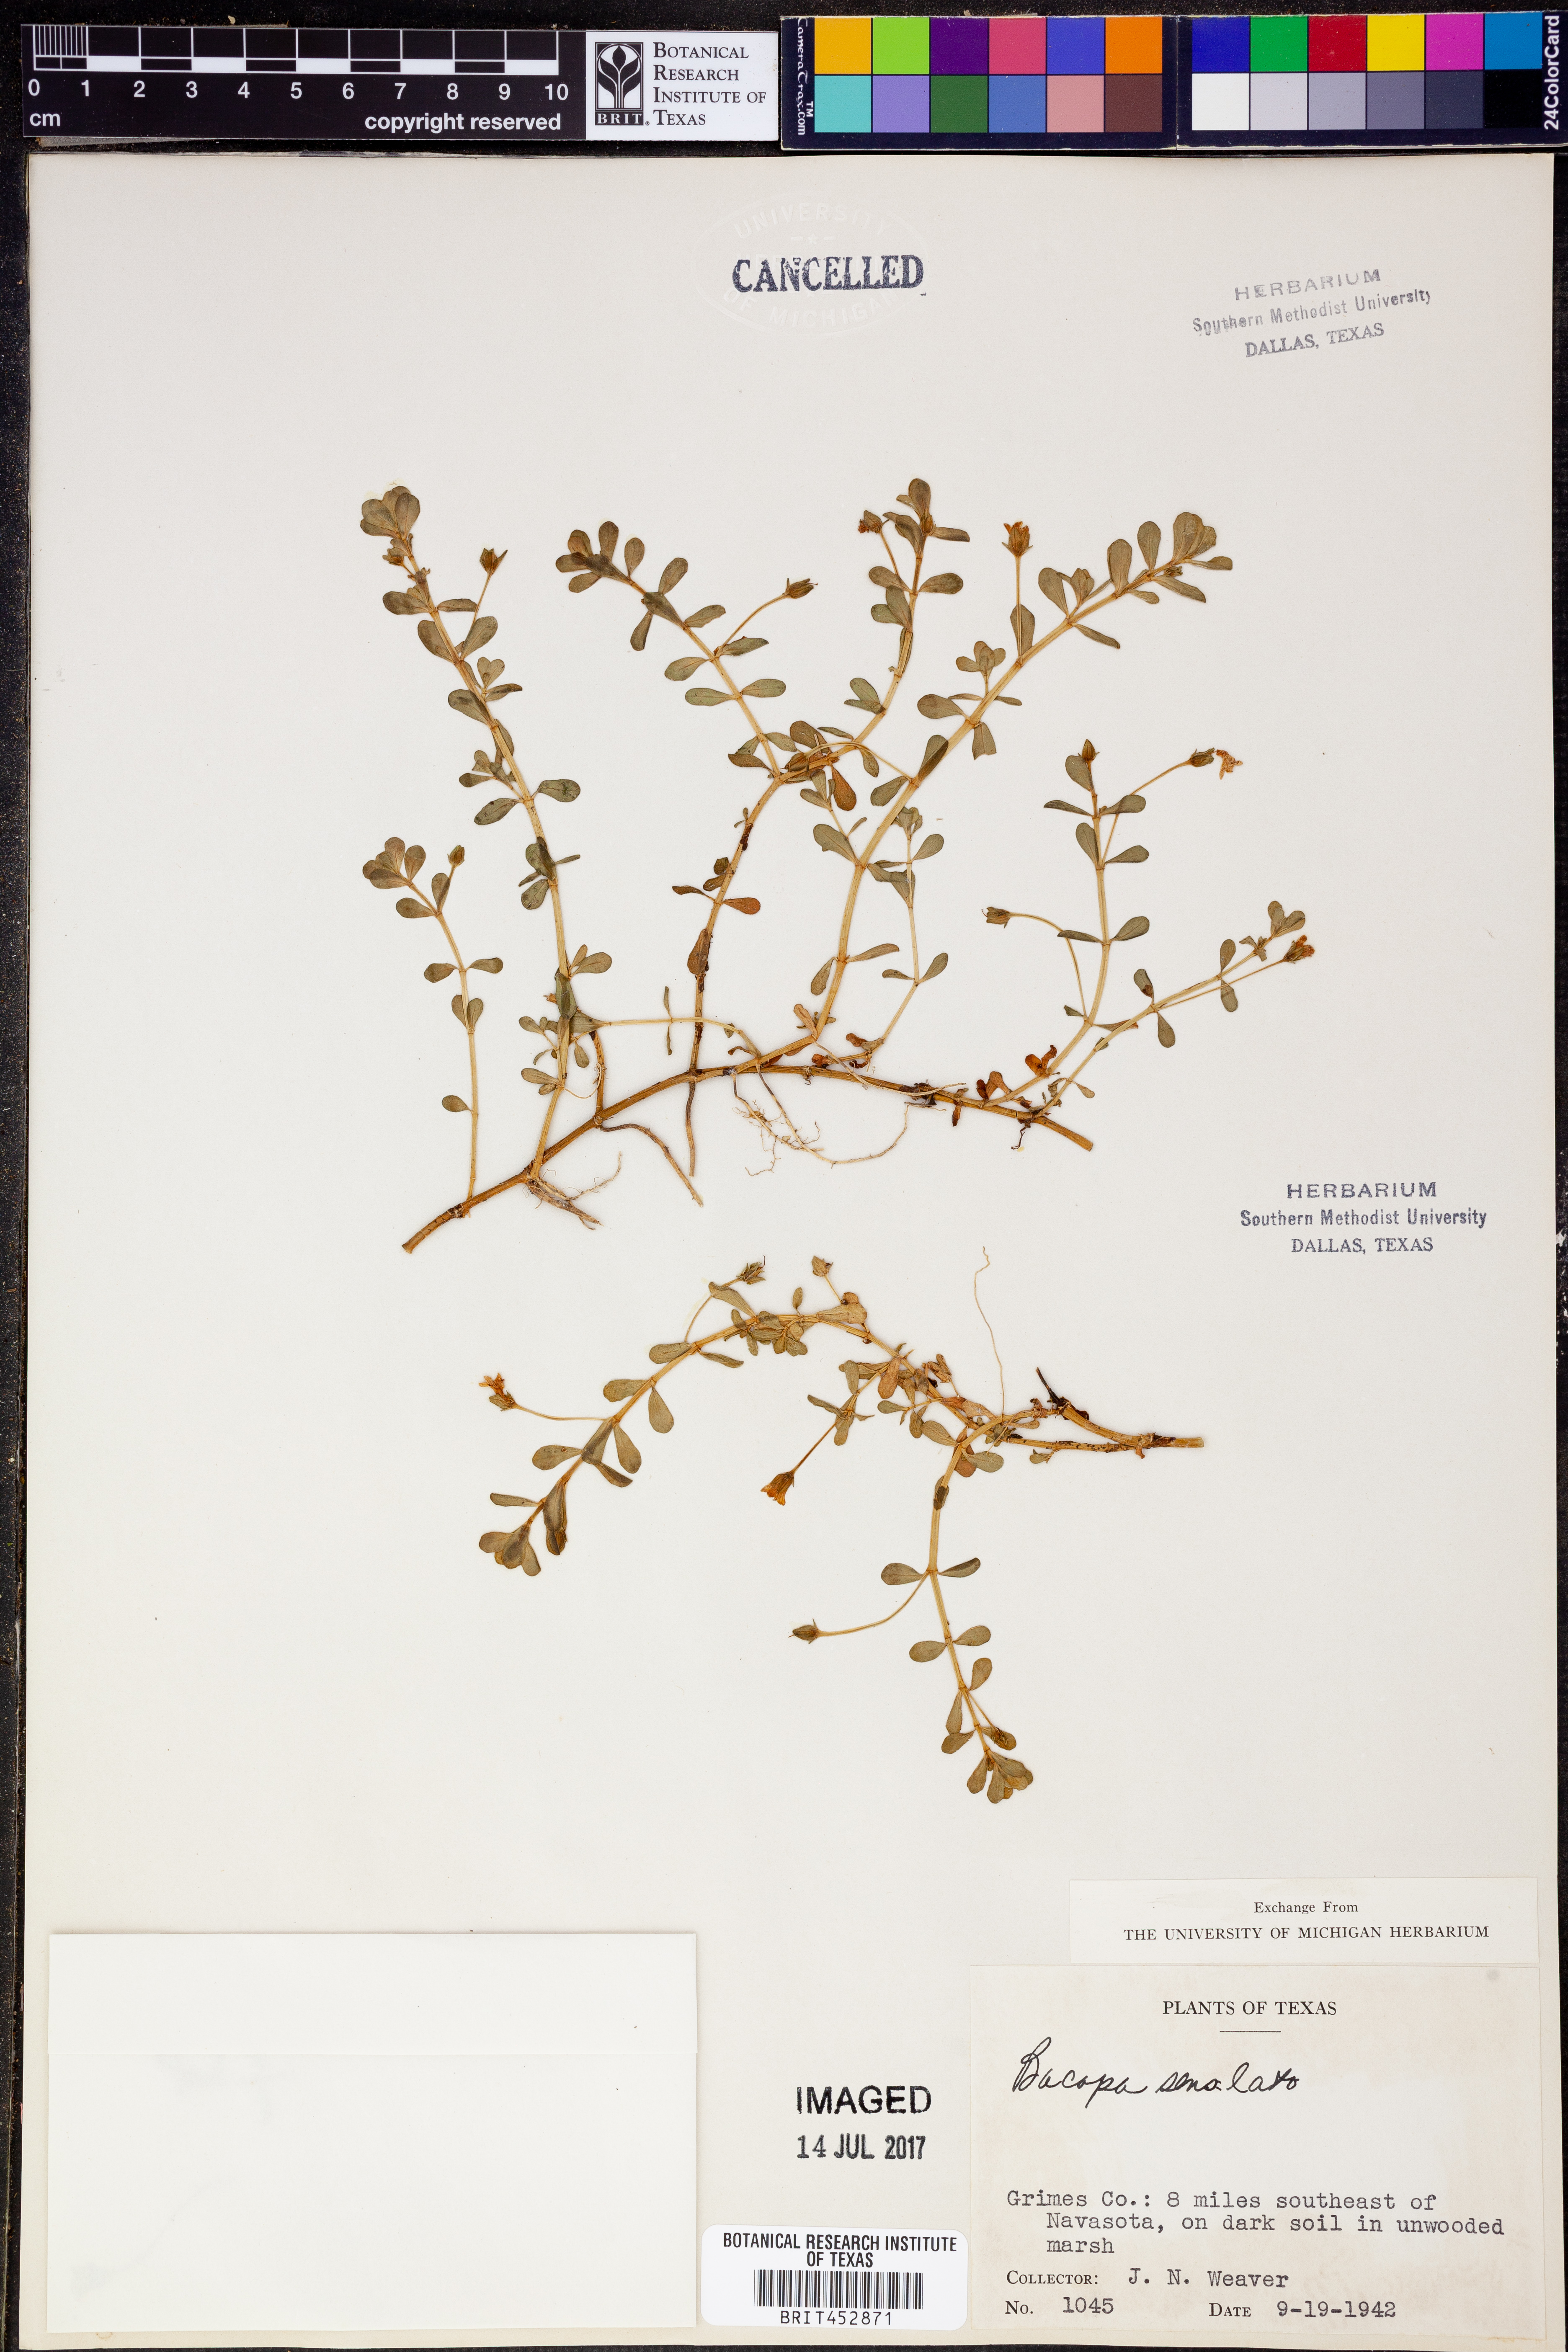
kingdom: Plantae
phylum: Tracheophyta
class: Magnoliopsida
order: Lamiales
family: Plantaginaceae
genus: Bacopa
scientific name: Bacopa
